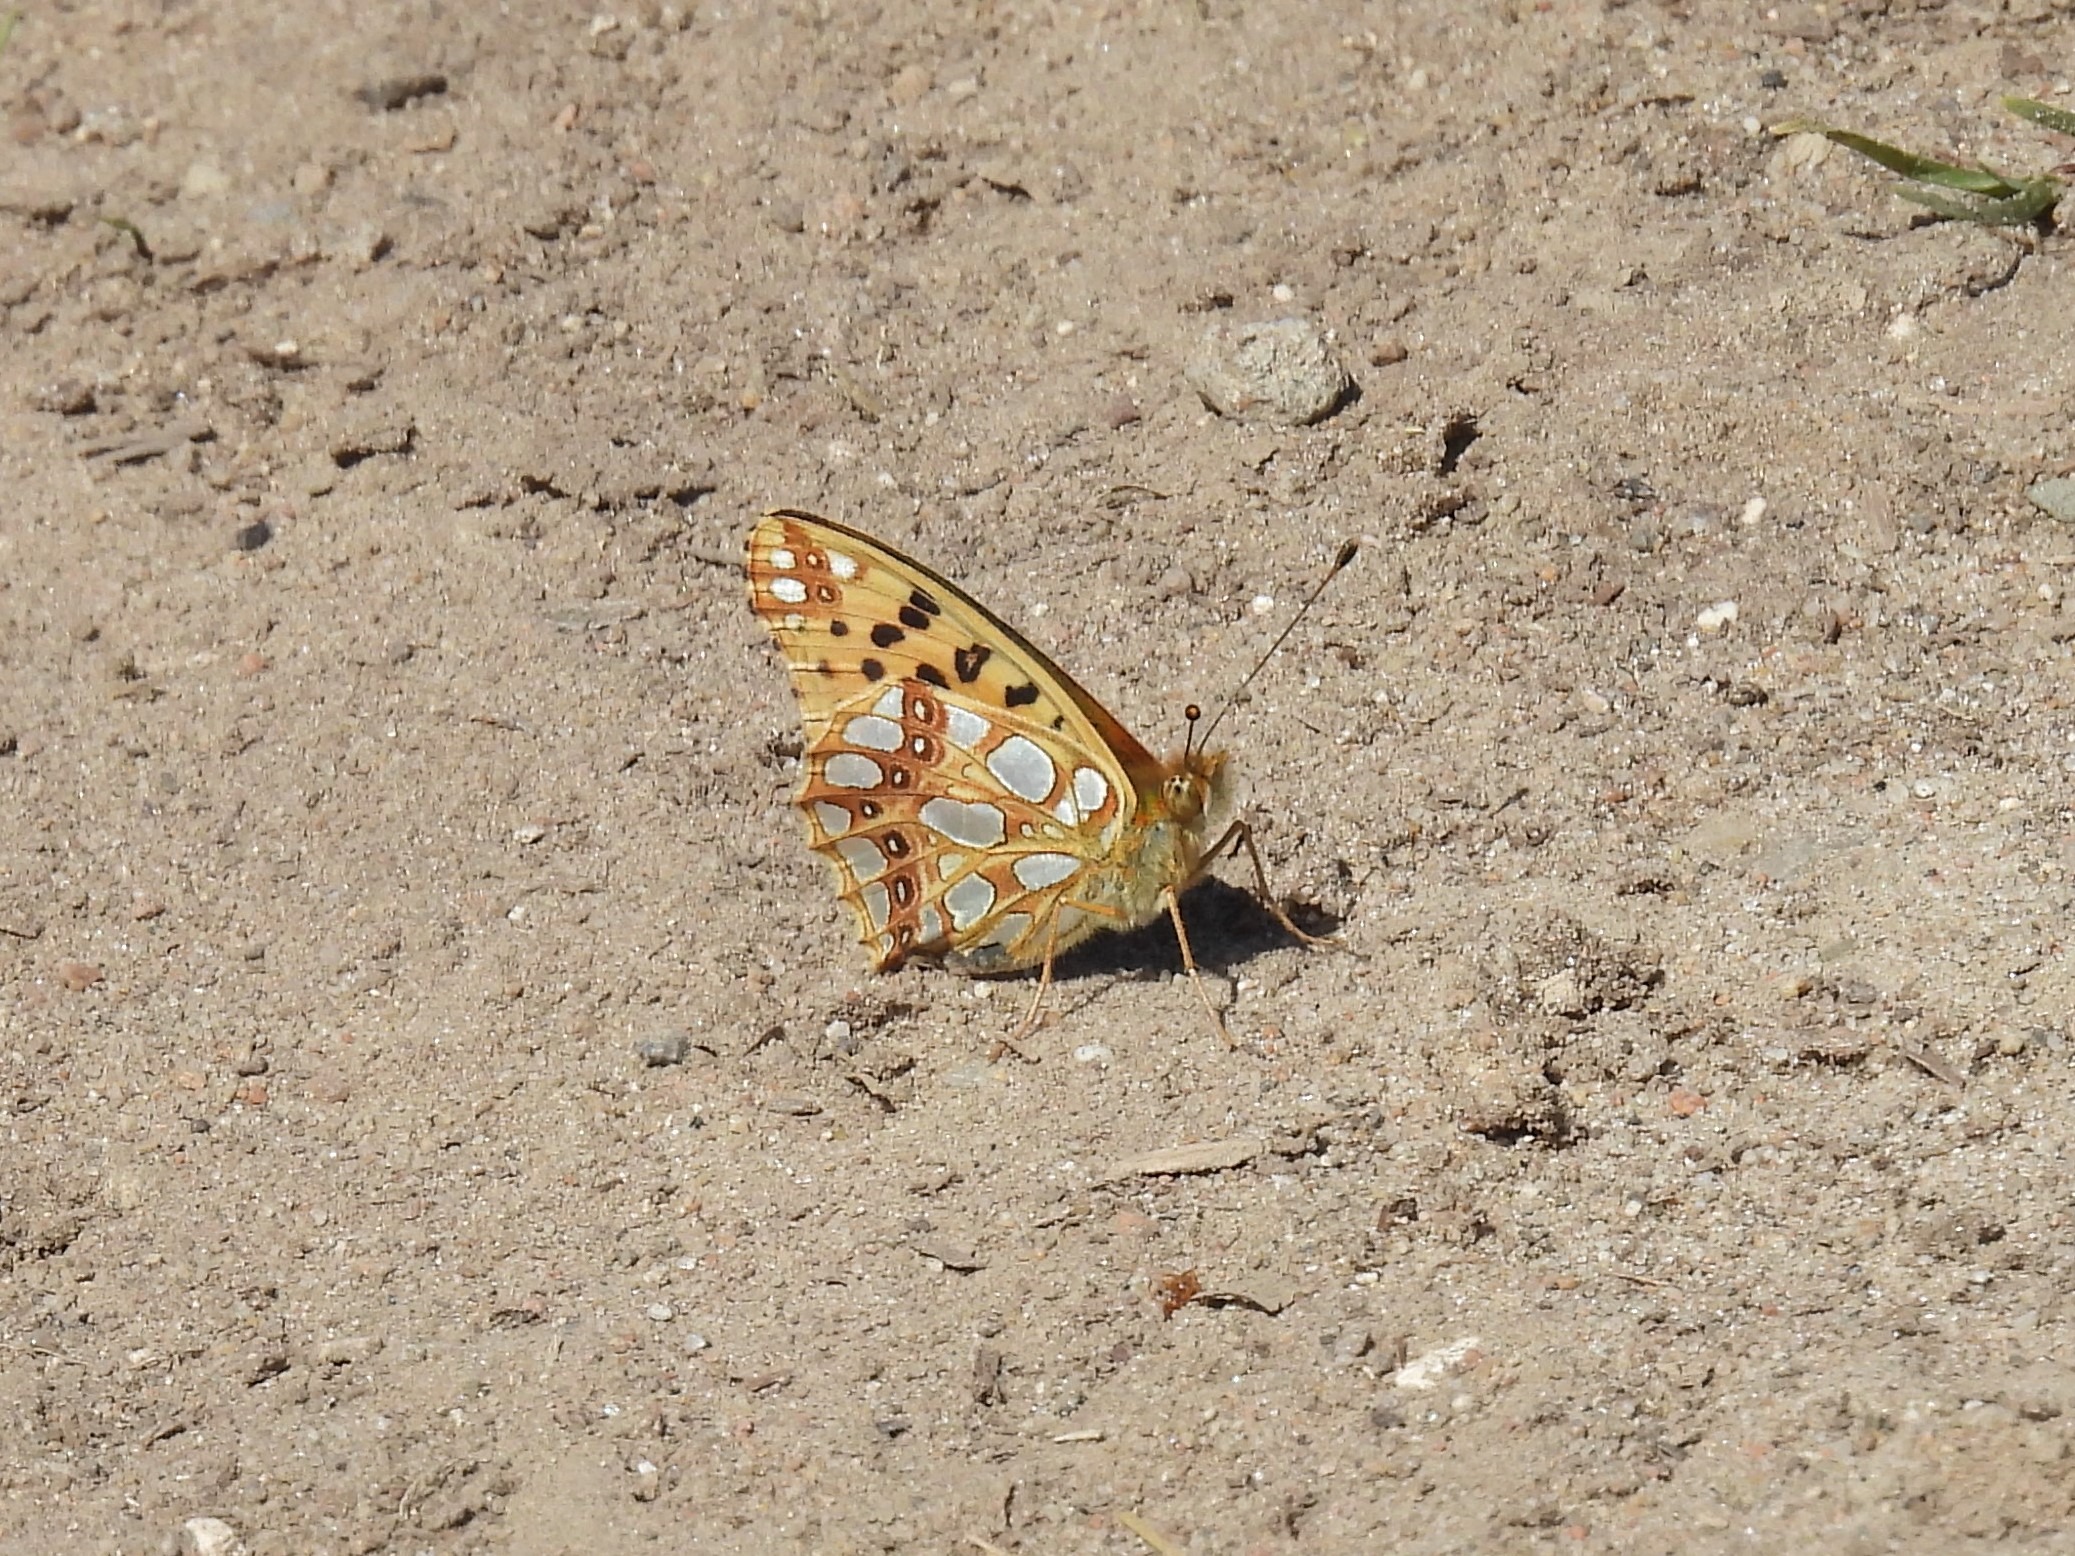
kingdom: Animalia
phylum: Arthropoda
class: Insecta
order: Lepidoptera
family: Nymphalidae
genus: Issoria
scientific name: Issoria lathonia
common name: Storplettet perlemorsommerfugl
